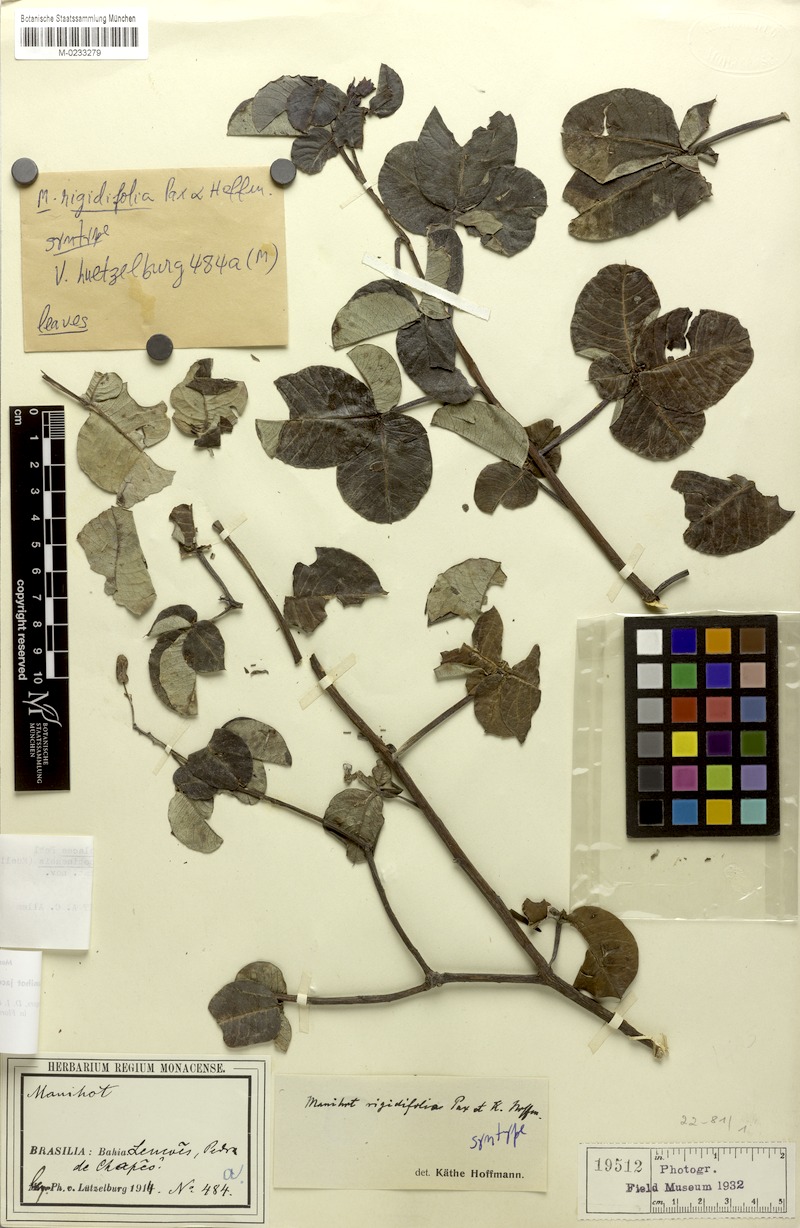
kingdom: Plantae
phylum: Tracheophyta
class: Magnoliopsida
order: Malpighiales
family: Euphorbiaceae
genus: Manihot
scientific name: Manihot jacobinensis
